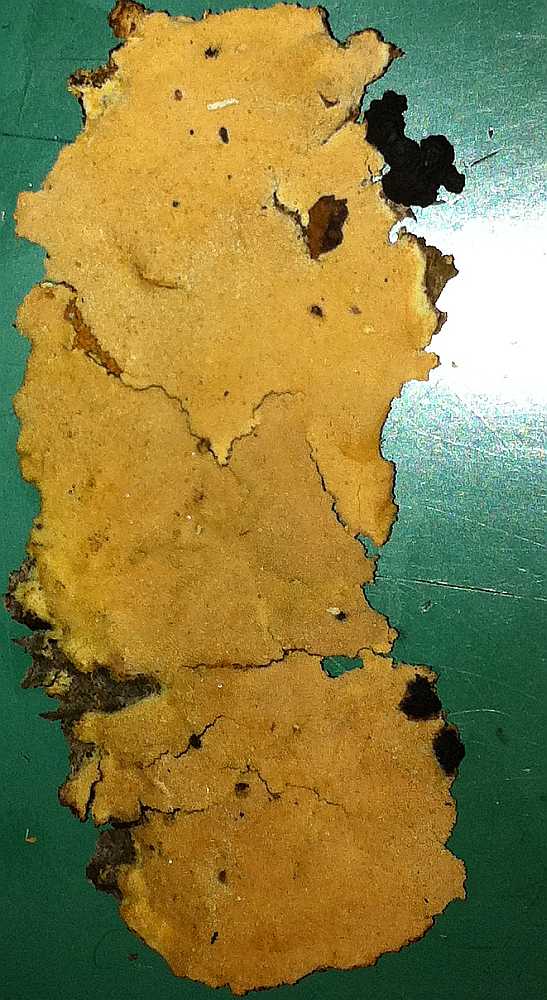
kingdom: Fungi
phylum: Basidiomycota
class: Agaricomycetes
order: Hymenochaetales
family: Schizoporaceae
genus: Xylodon
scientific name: Xylodon flaviporus
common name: gulporet tandsvamp
